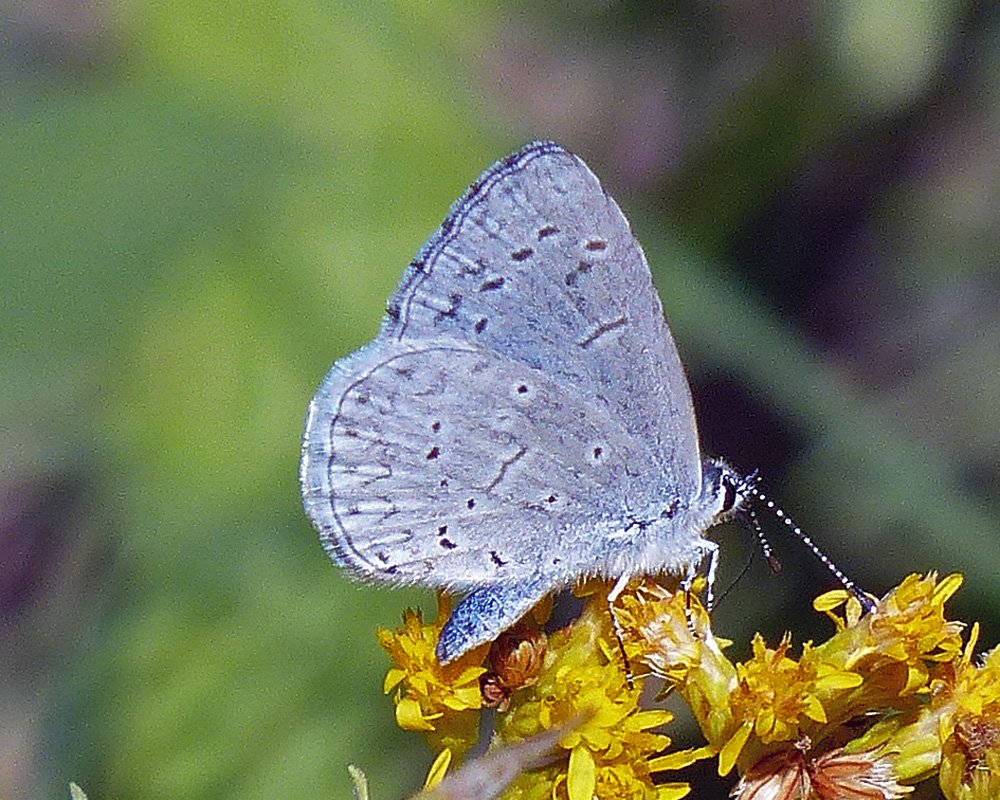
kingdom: Animalia
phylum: Arthropoda
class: Insecta
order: Lepidoptera
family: Lycaenidae
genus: Celastrina
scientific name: Celastrina ladon
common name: Spring Azure
